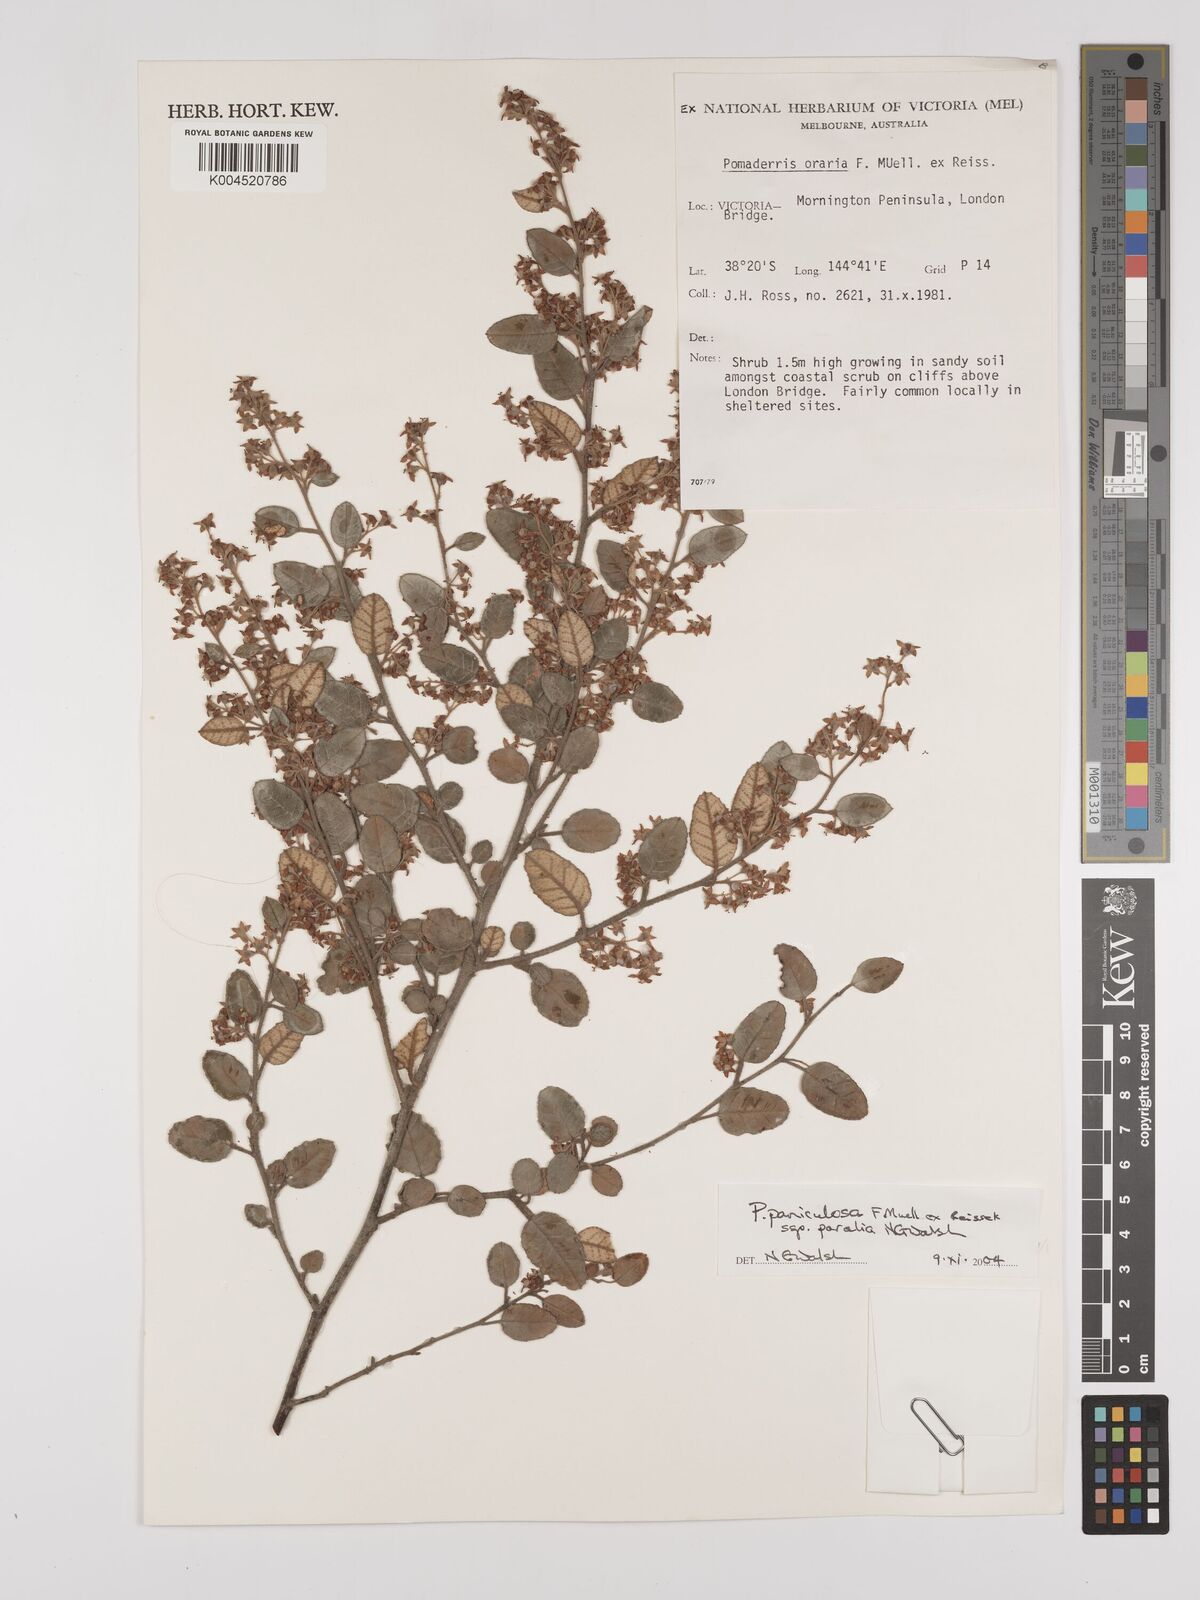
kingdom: Plantae
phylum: Tracheophyta
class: Magnoliopsida
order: Rosales
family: Rhamnaceae
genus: Pomaderris
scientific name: Pomaderris paniculosa
